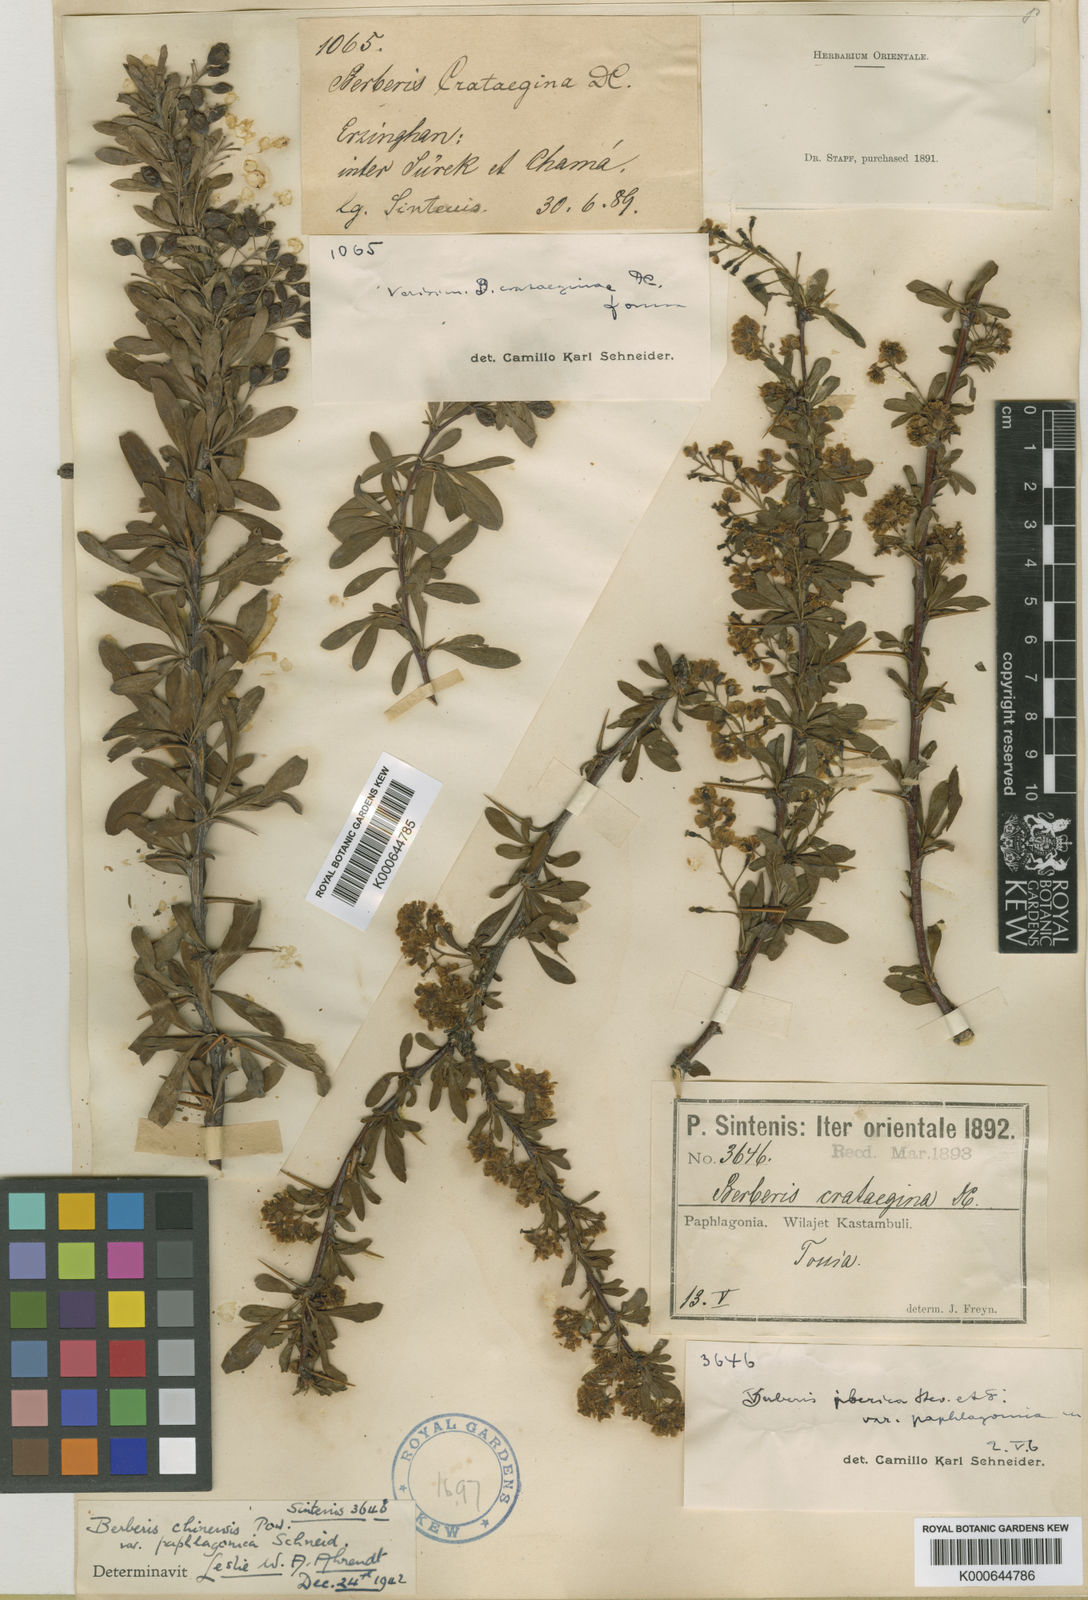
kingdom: Plantae
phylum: Tracheophyta
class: Magnoliopsida
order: Ranunculales
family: Berberidaceae
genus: Berberis
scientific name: Berberis crataegina
